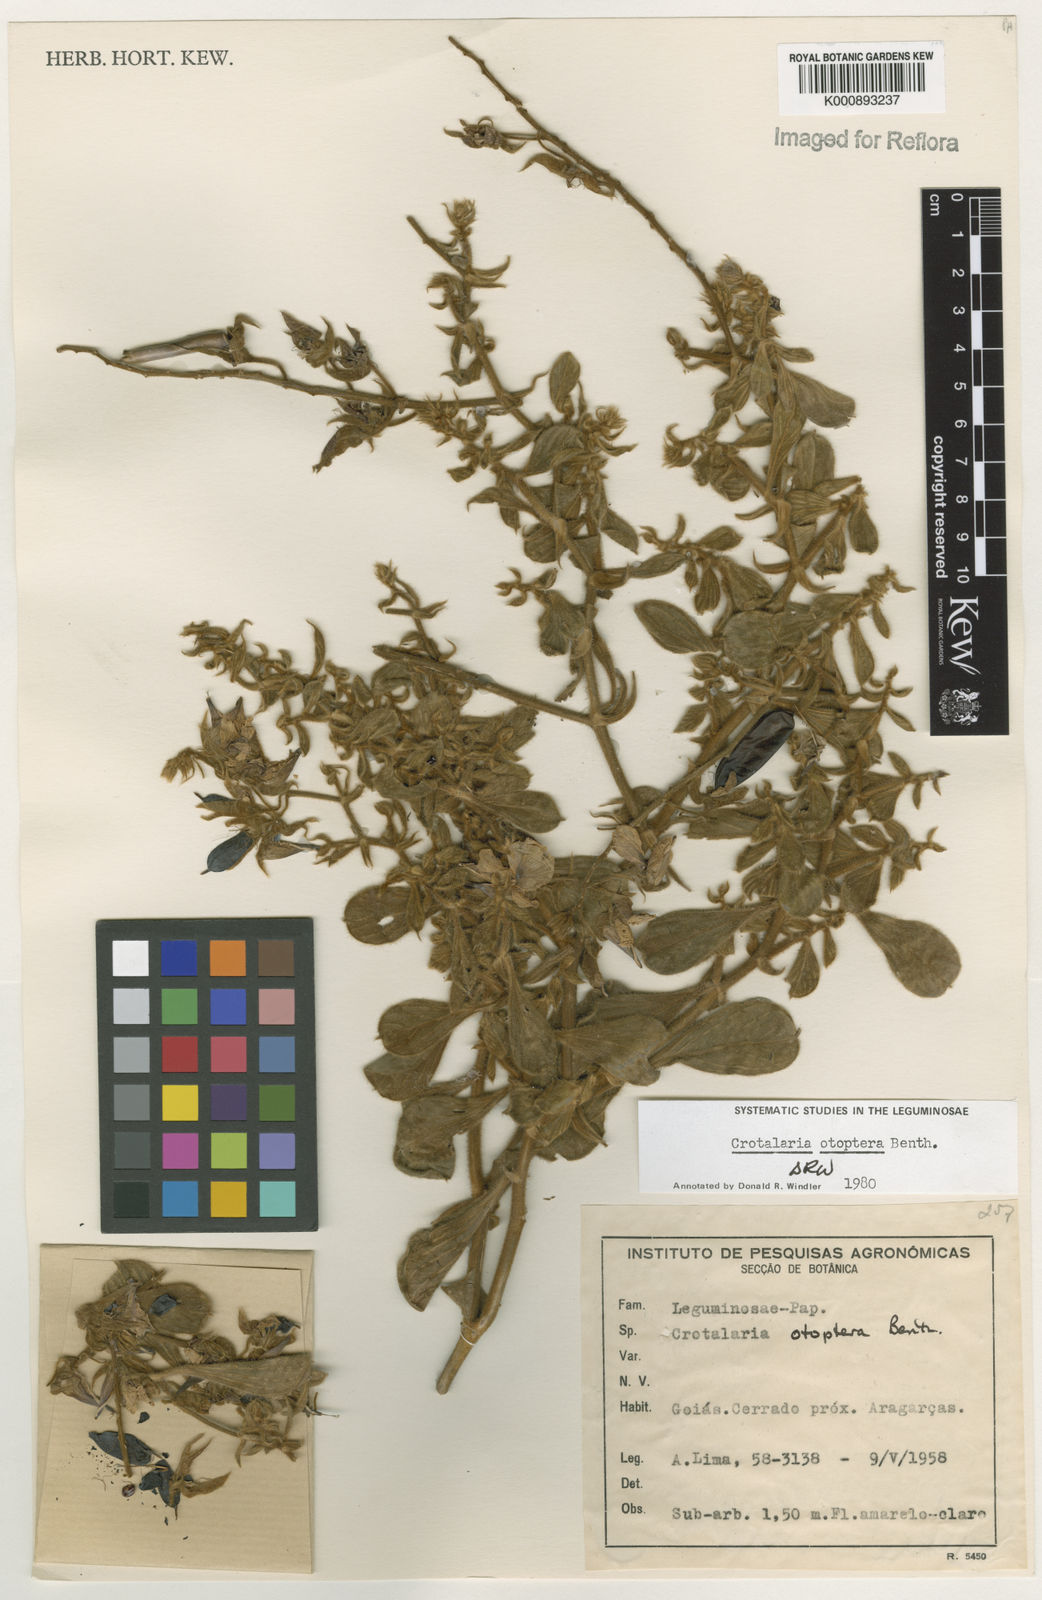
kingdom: Plantae
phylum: Tracheophyta
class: Magnoliopsida
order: Fabales
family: Fabaceae
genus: Crotalaria
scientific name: Crotalaria otoptera
